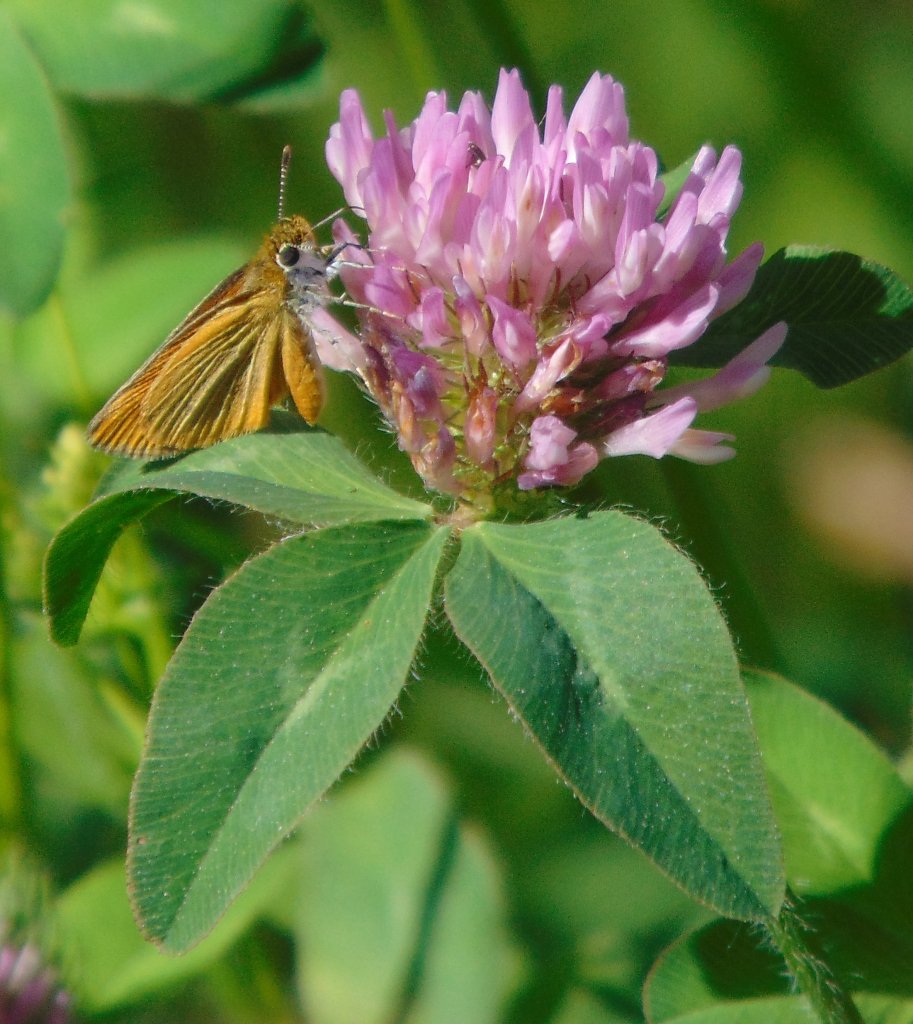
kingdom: Animalia
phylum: Arthropoda
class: Insecta
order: Lepidoptera
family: Hesperiidae
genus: Thymelicus
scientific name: Thymelicus lineola
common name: European Skipper
